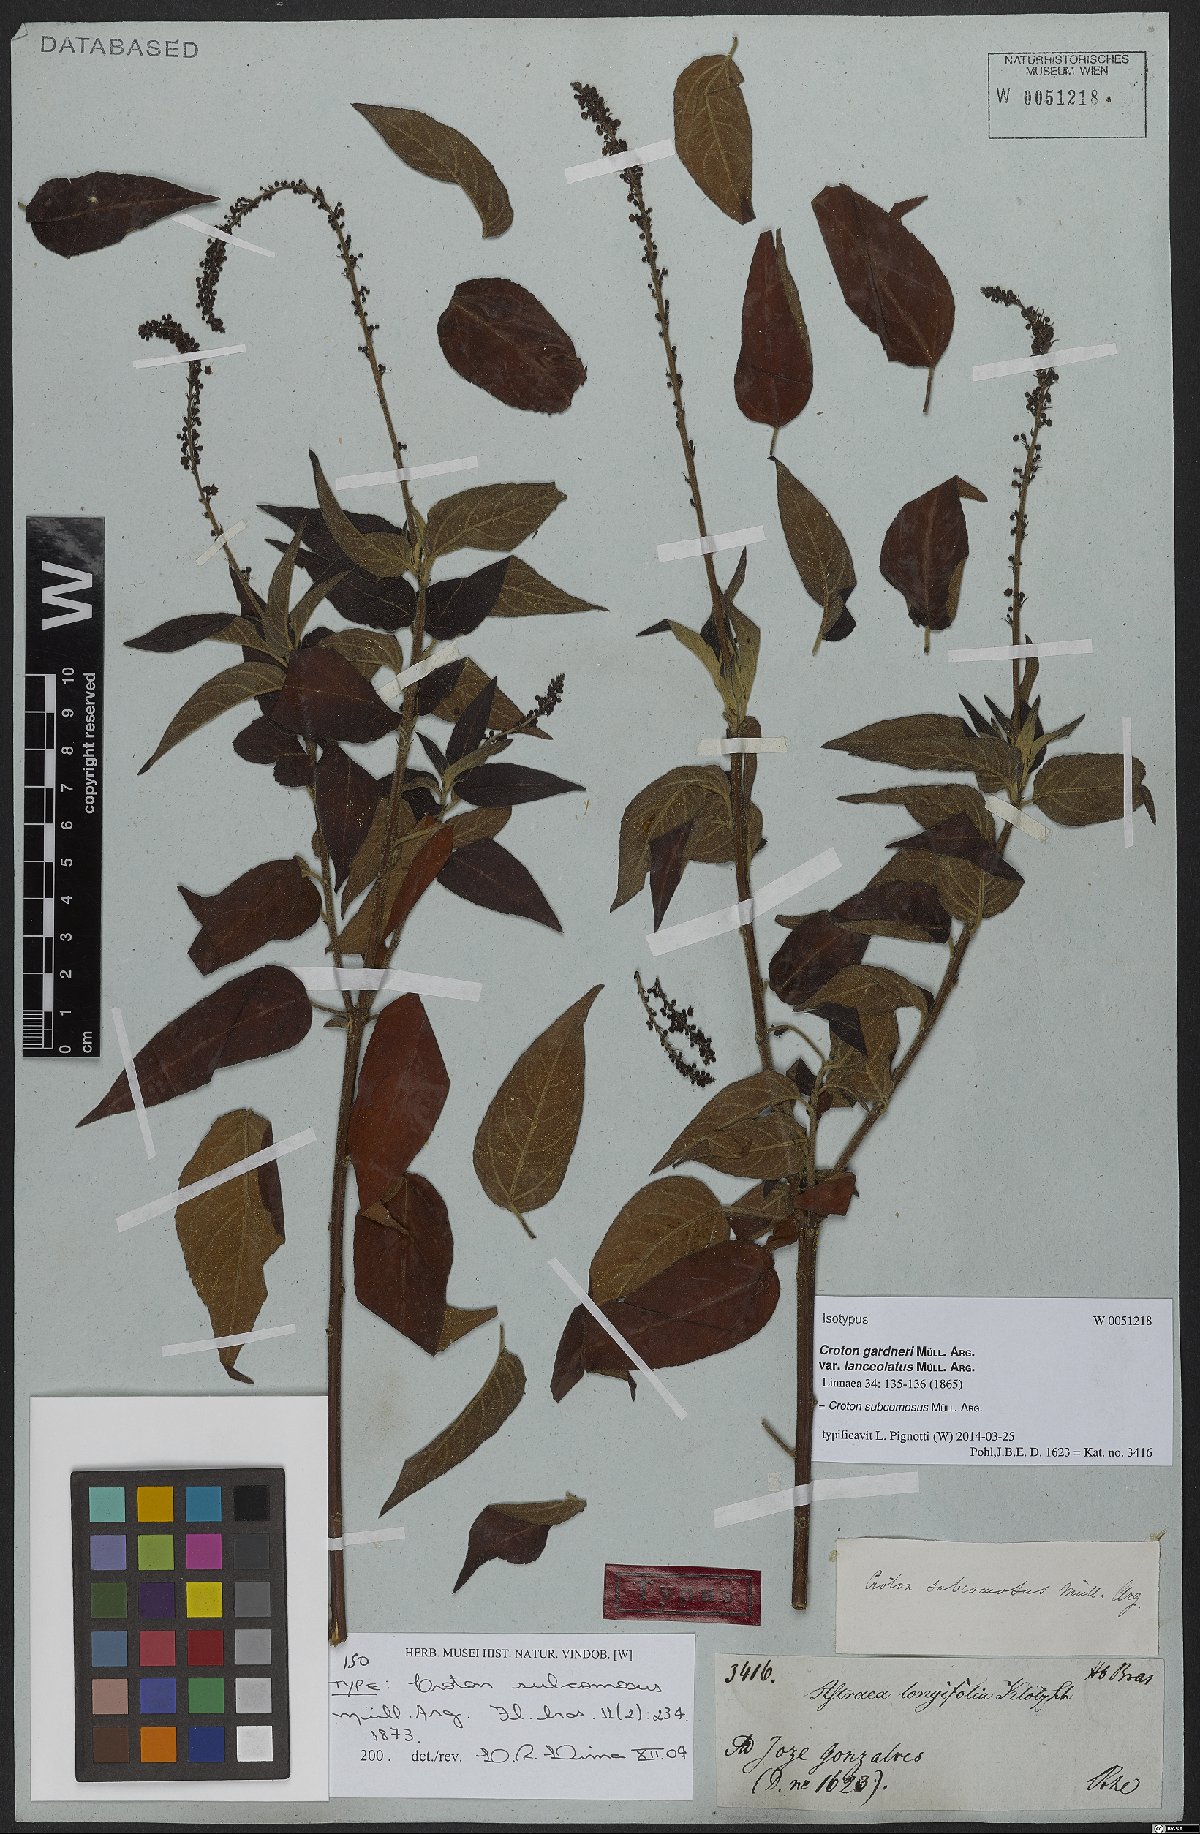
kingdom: Plantae
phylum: Tracheophyta
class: Magnoliopsida
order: Malpighiales
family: Euphorbiaceae
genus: Astraea
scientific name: Astraea subcomosa
